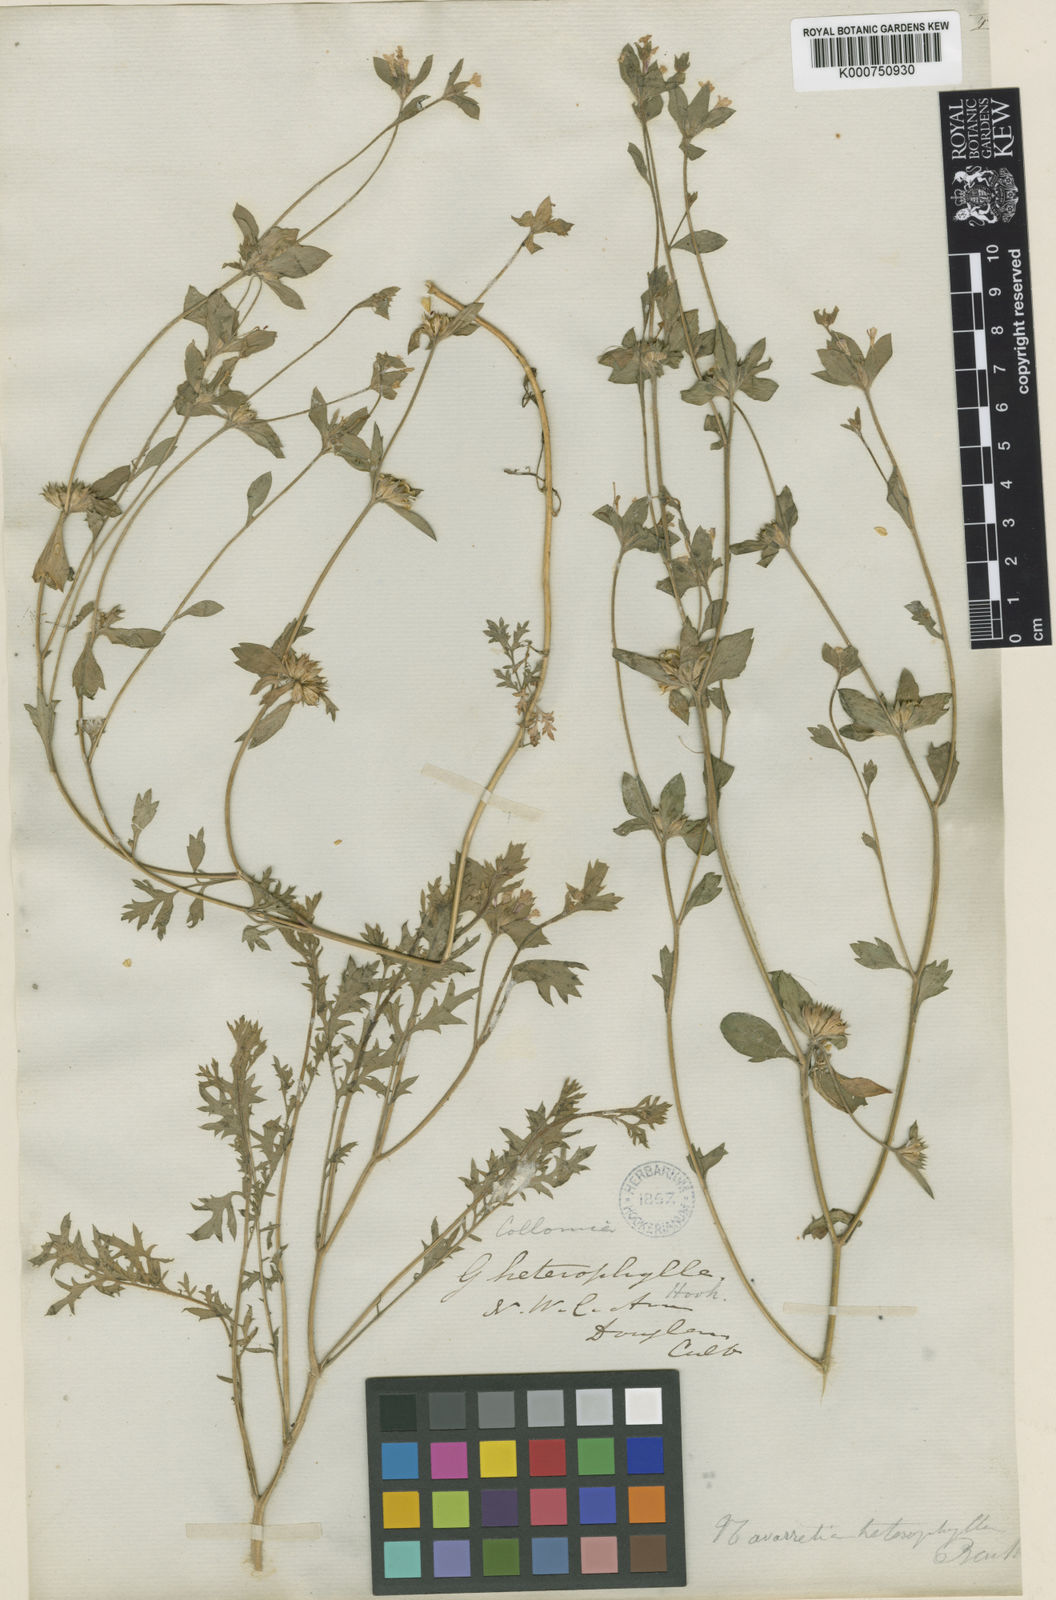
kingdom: Plantae
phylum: Tracheophyta
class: Magnoliopsida
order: Ericales
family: Polemoniaceae
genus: Collomia
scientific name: Collomia heterophylla
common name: Variable-leaved collomia
